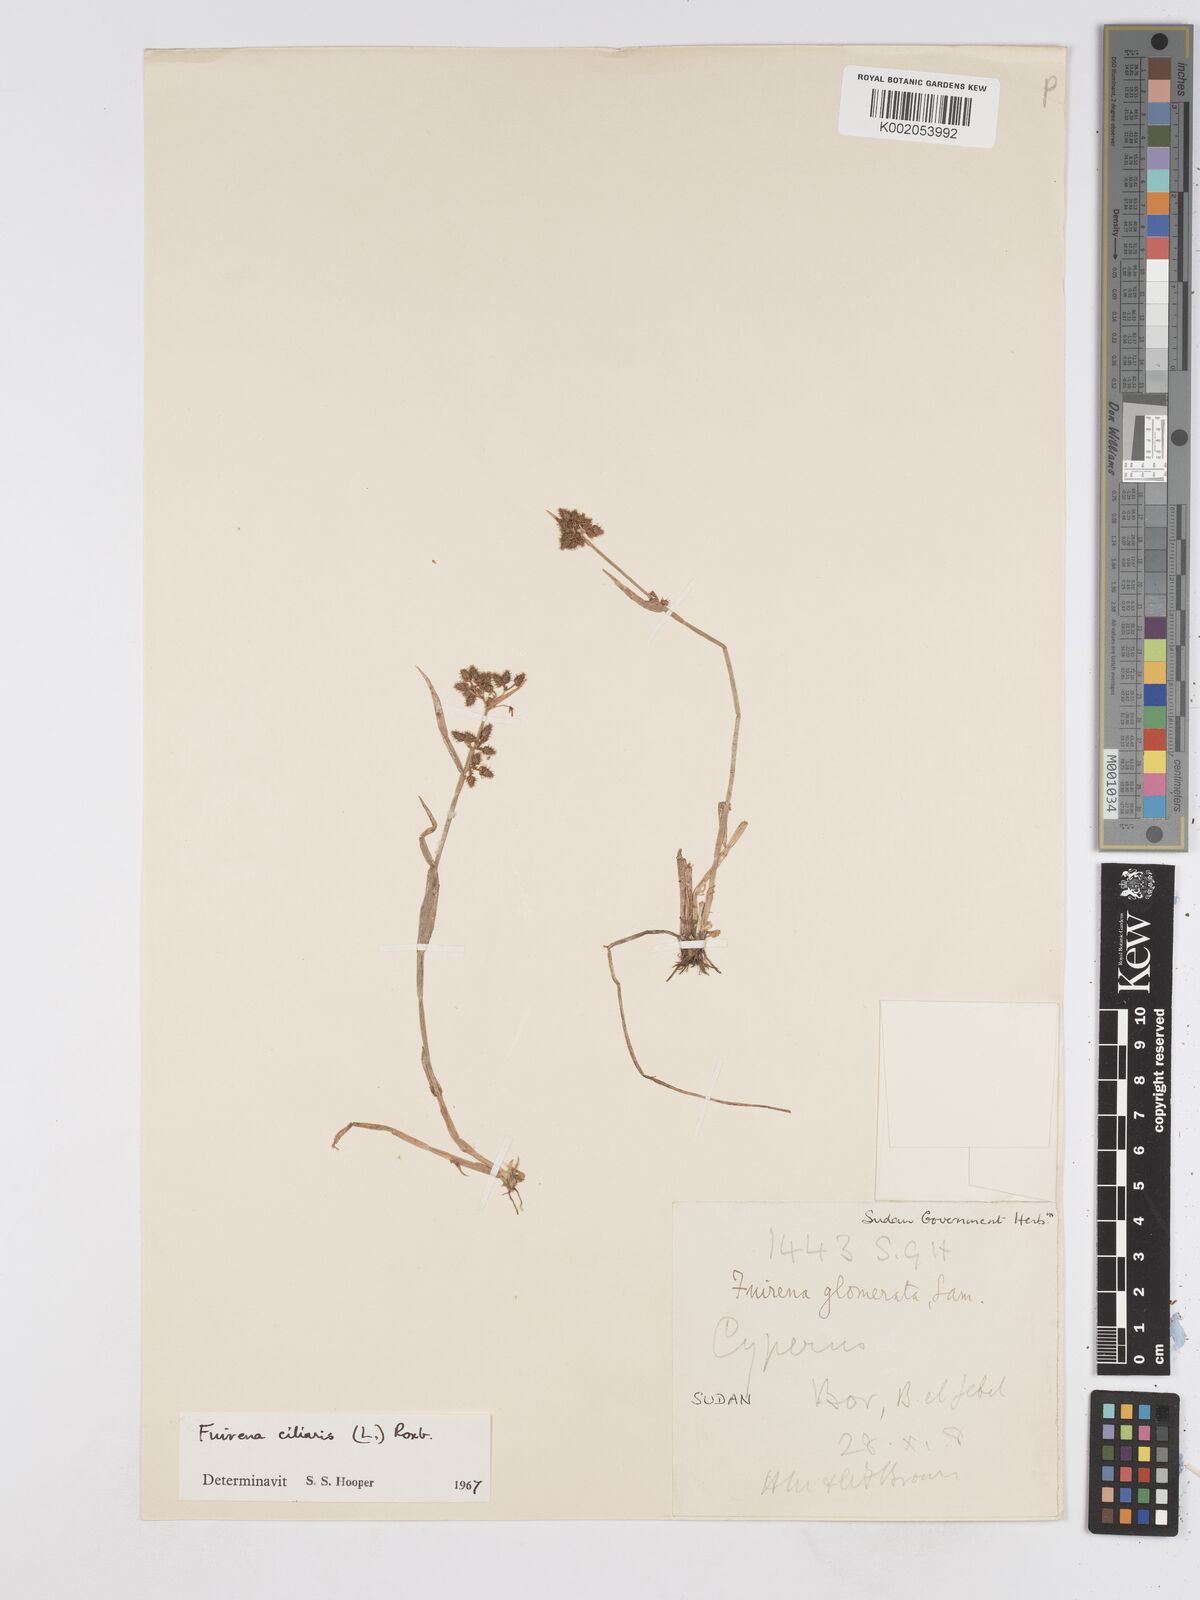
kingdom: Plantae
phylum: Tracheophyta
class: Liliopsida
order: Poales
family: Cyperaceae
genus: Fuirena
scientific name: Fuirena ciliaris
